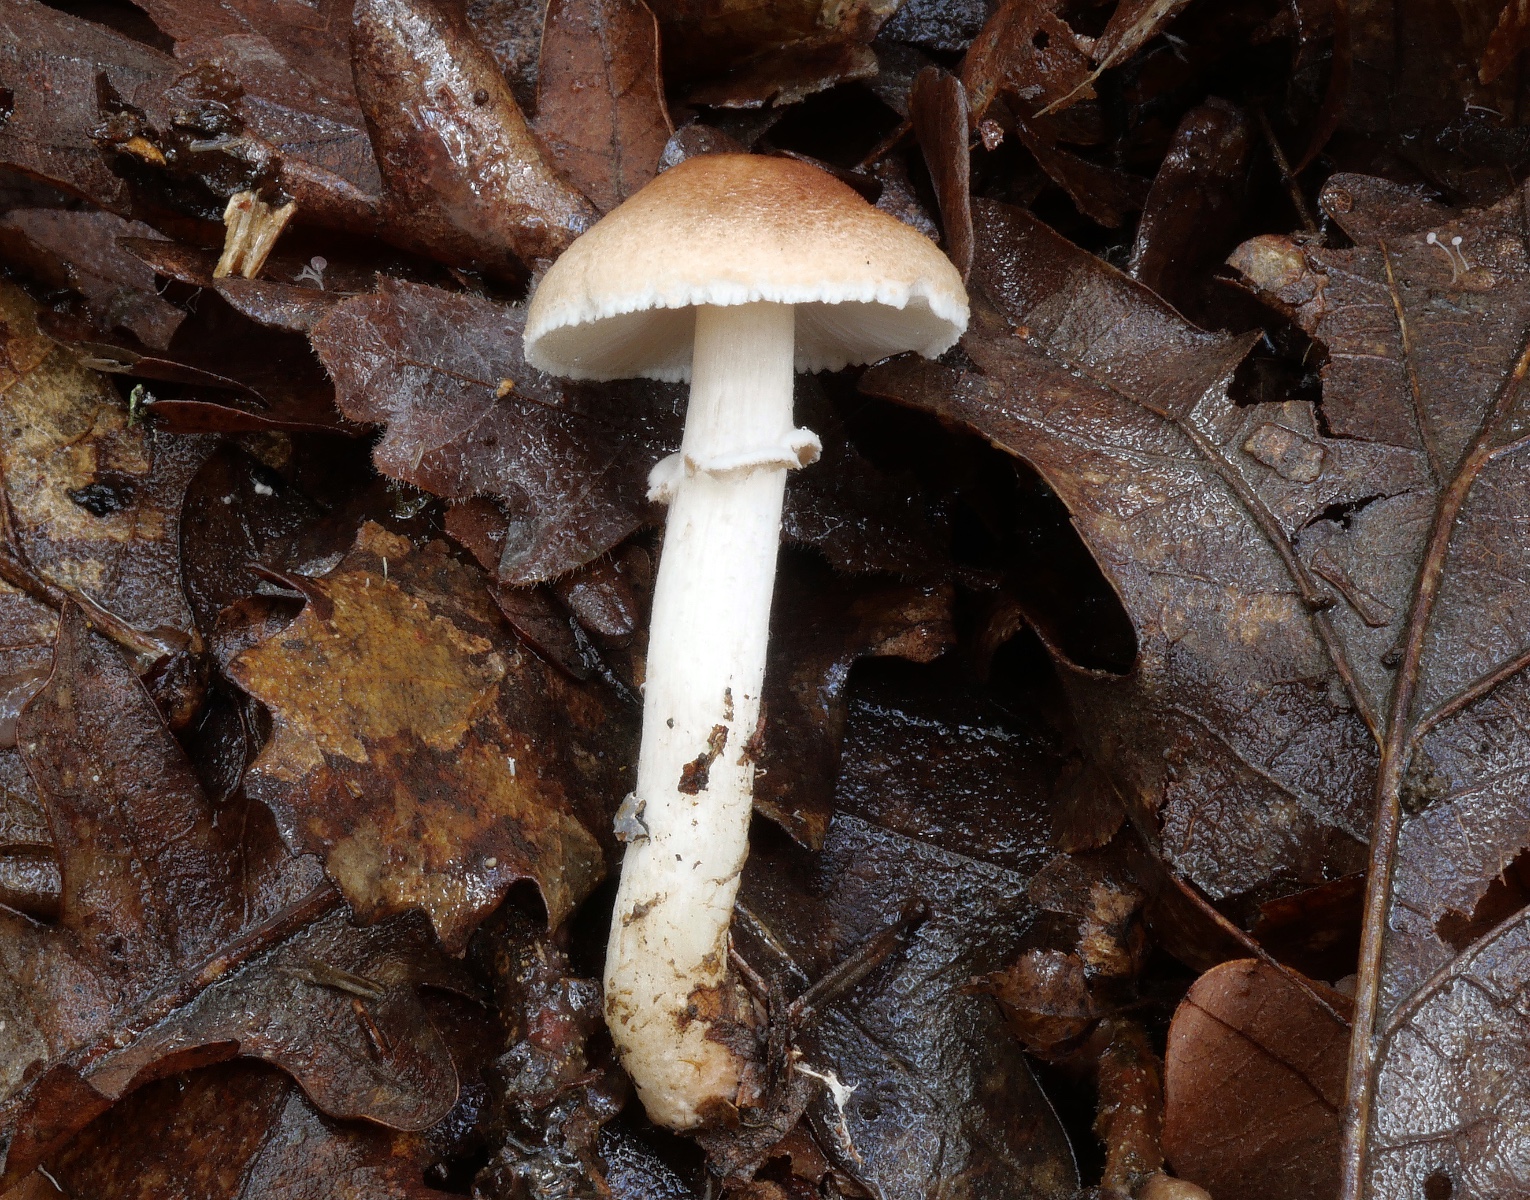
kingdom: Fungi
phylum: Basidiomycota
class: Agaricomycetes
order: Agaricales
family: Agaricaceae
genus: Lepiota
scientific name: Lepiota ignivolvata
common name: orangefodet parasolhat
